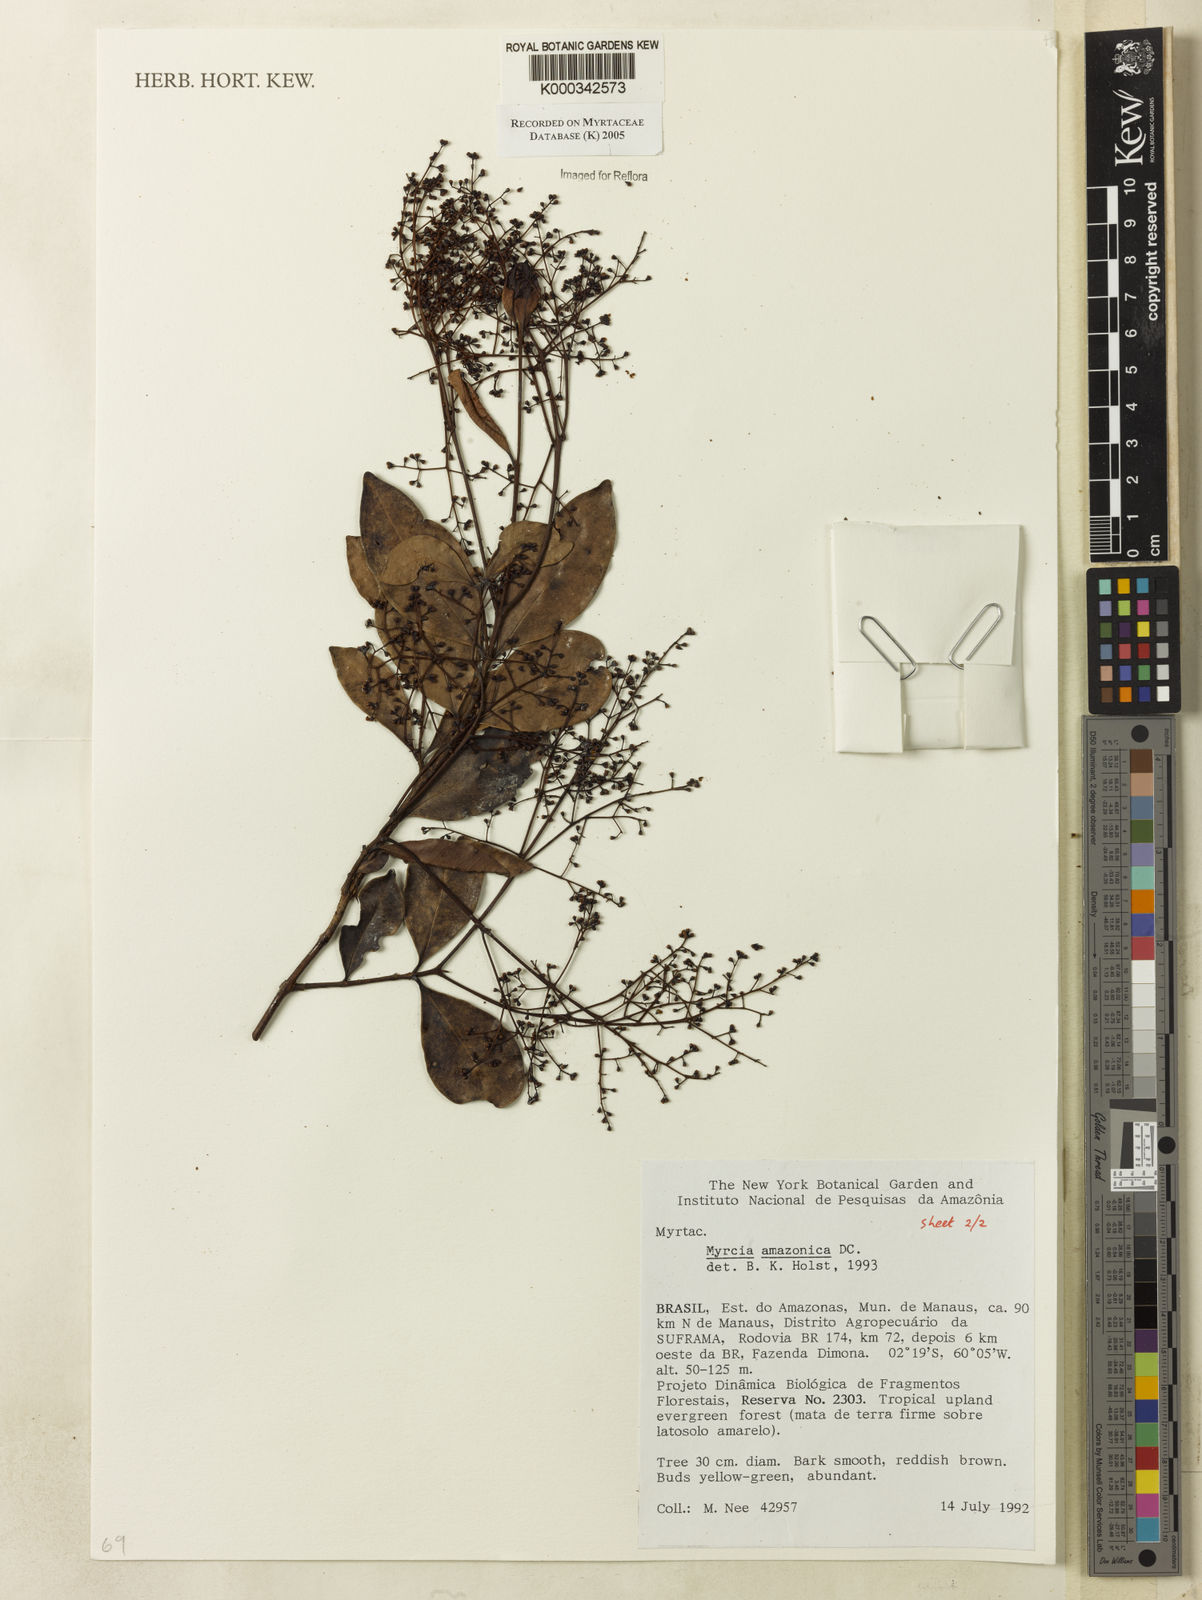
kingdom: Plantae
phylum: Tracheophyta
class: Magnoliopsida
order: Myrtales
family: Myrtaceae
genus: Myrcia
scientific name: Myrcia amazonica
